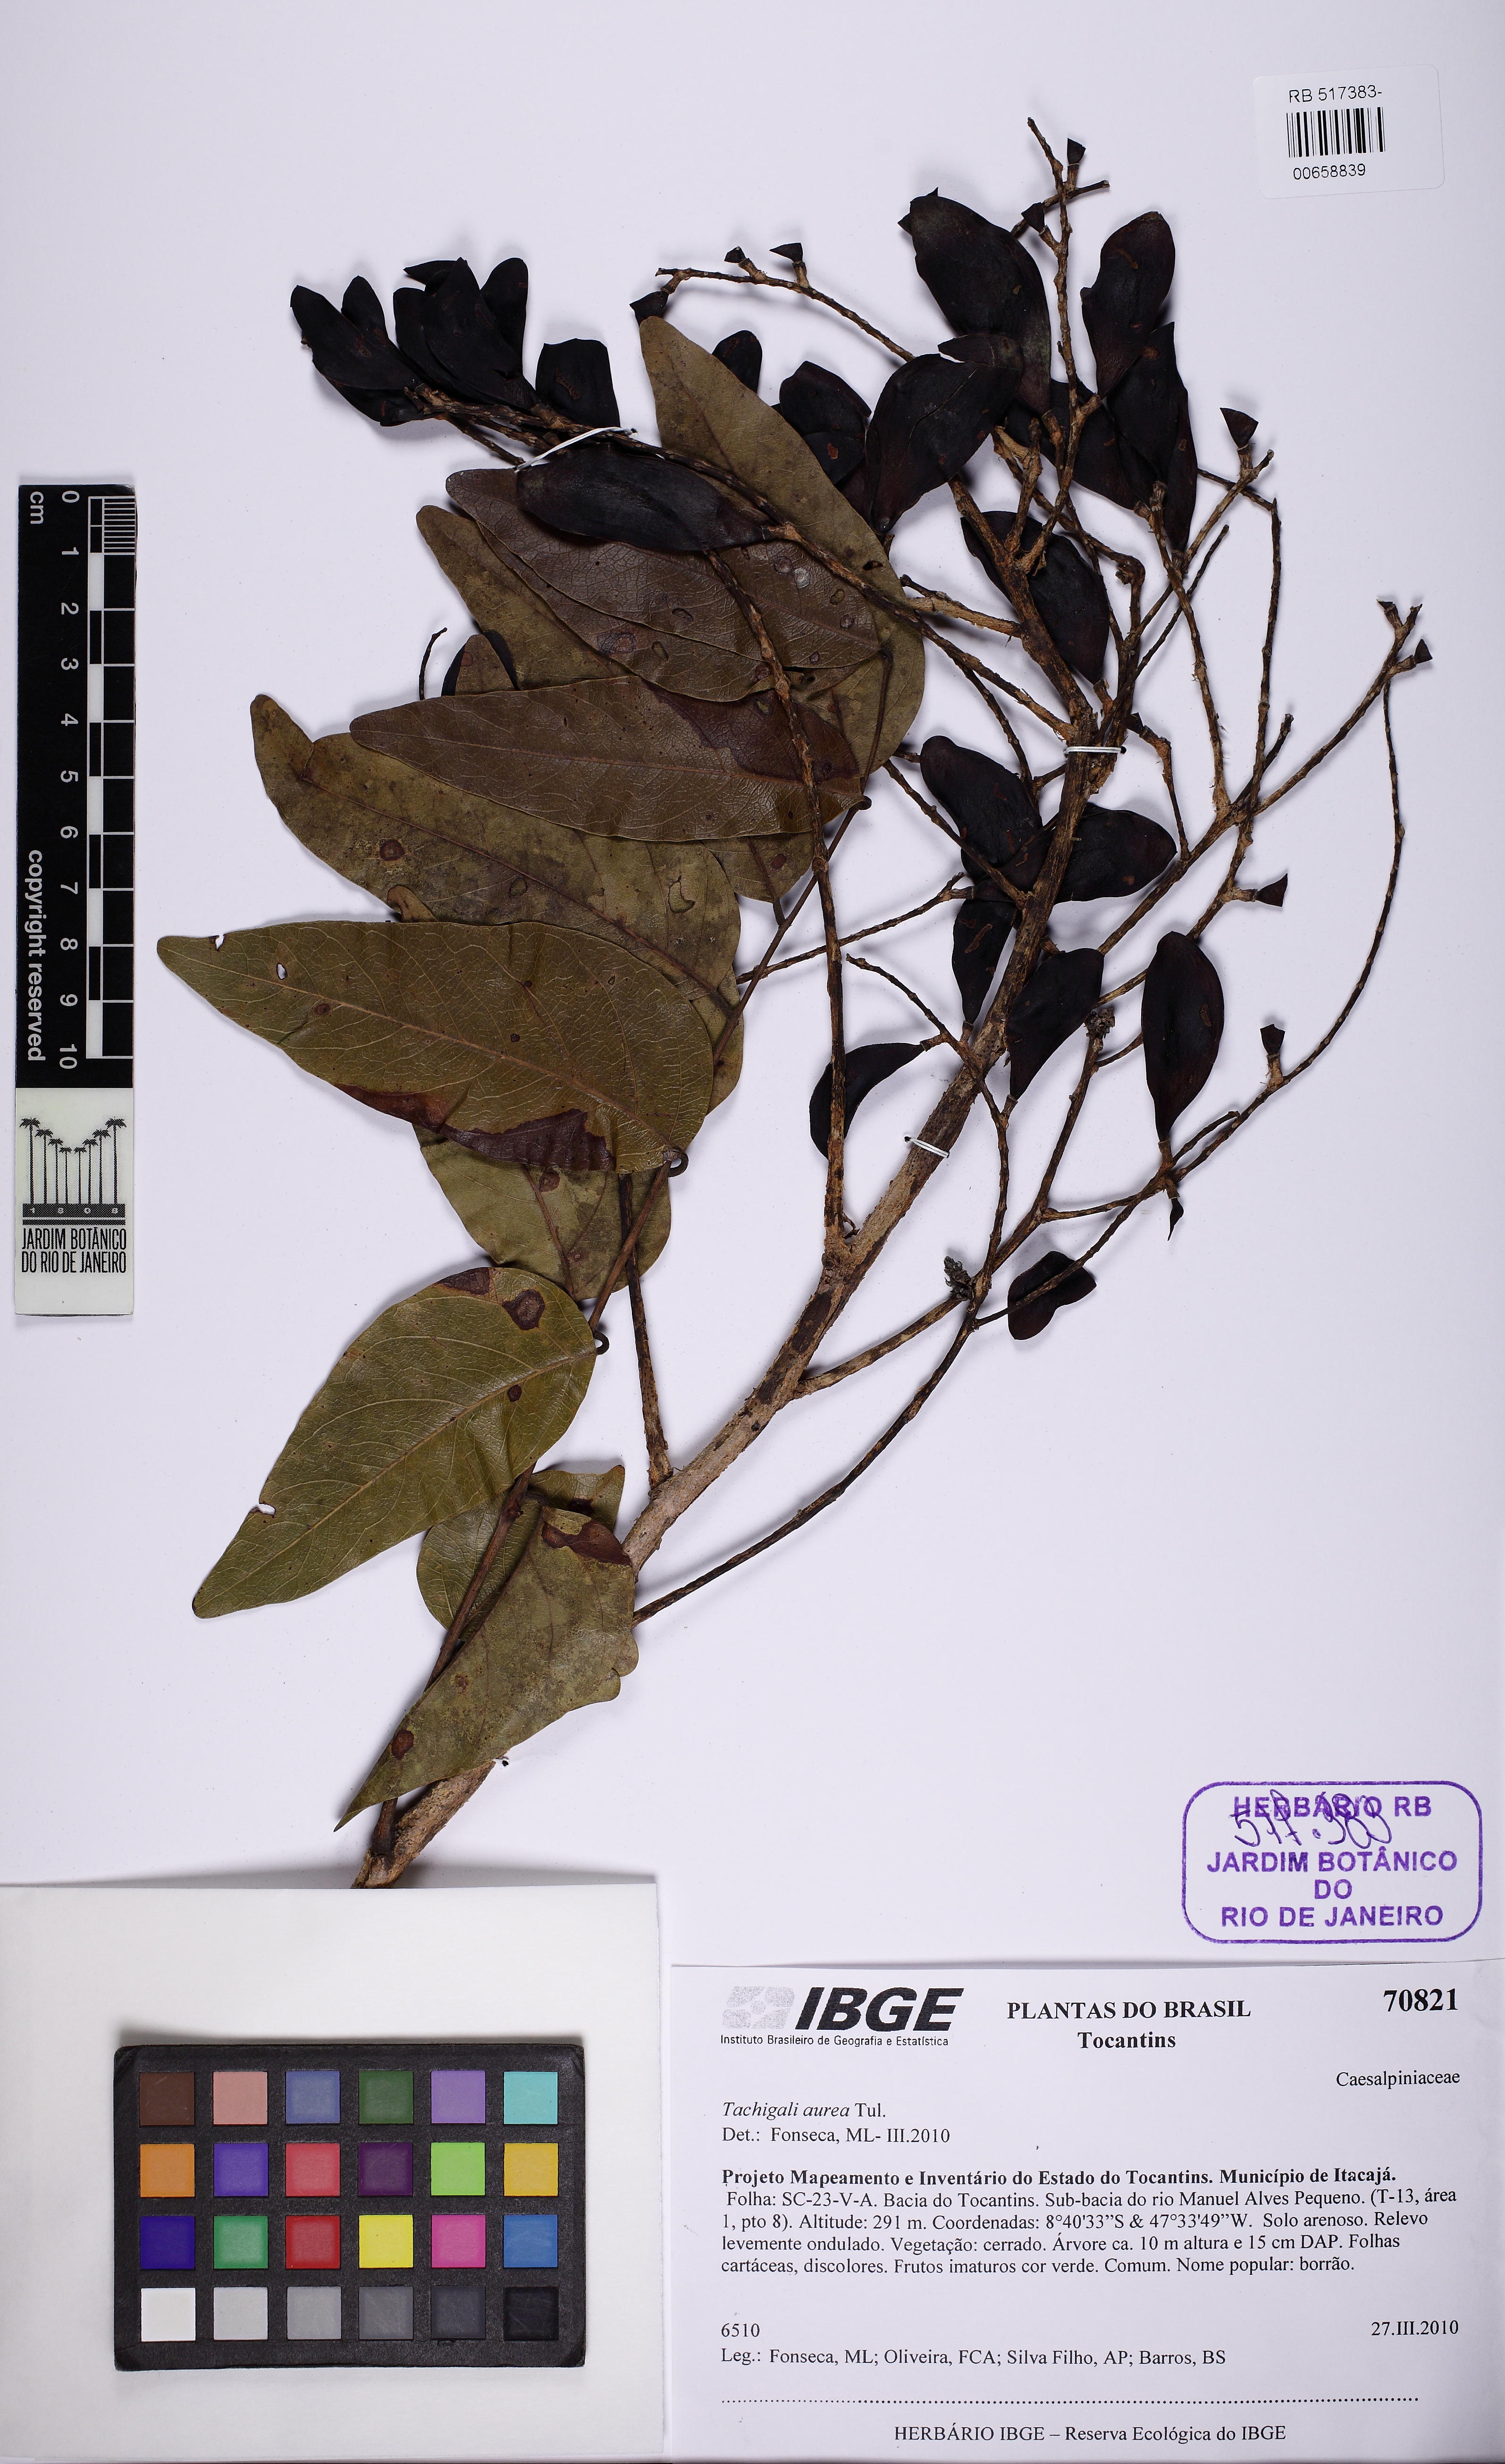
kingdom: Plantae
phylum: Tracheophyta
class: Magnoliopsida
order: Fabales
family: Fabaceae
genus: Tachigali
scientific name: Tachigali aurea
